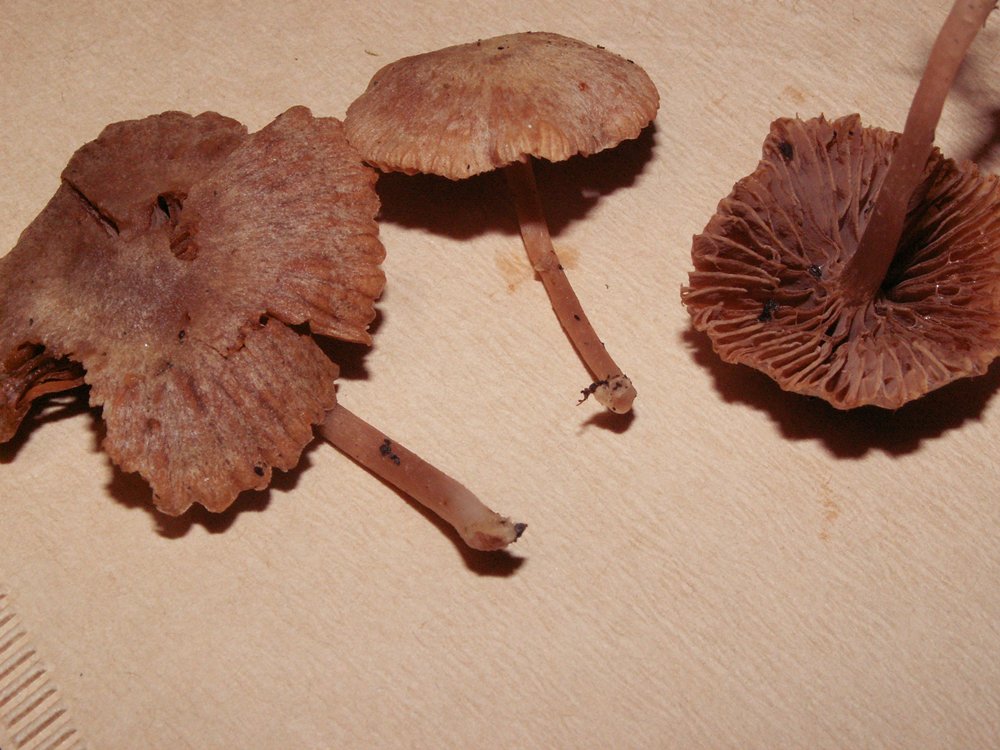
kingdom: Fungi
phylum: Basidiomycota
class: Agaricomycetes
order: Agaricales
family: Tubariaceae
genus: Tubaria
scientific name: Tubaria conspersa
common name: bleg fnughat
